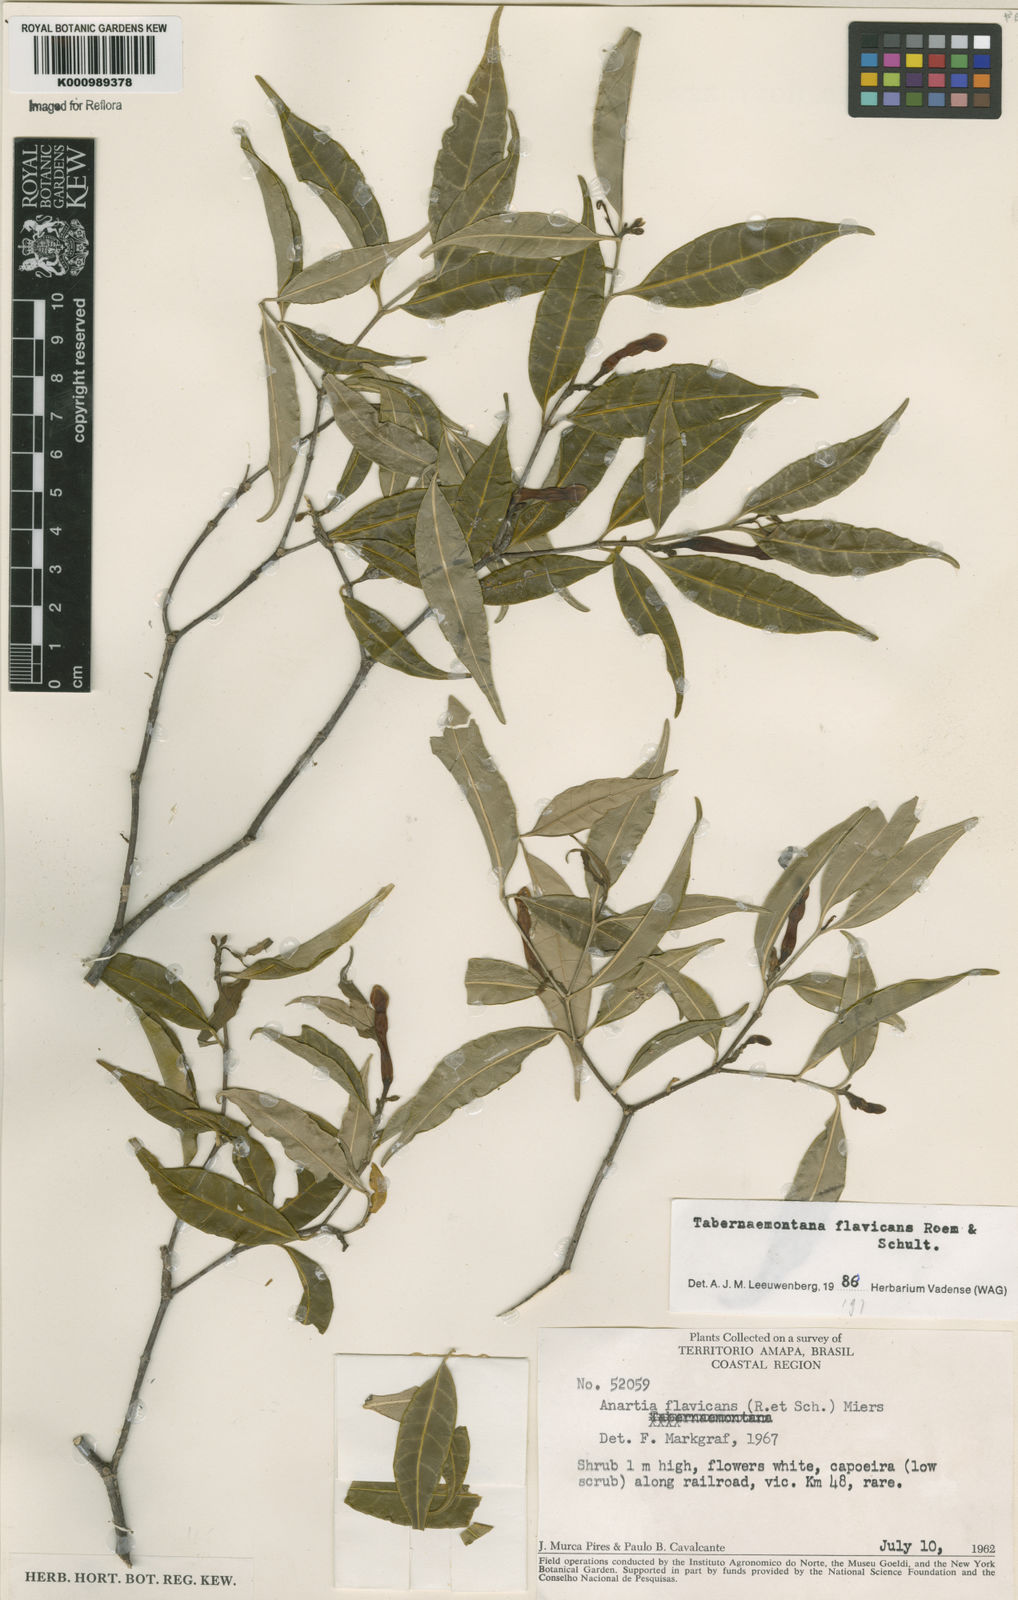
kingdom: Plantae
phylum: Tracheophyta
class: Magnoliopsida
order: Gentianales
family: Apocynaceae
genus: Tabernaemontana
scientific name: Tabernaemontana flavicans
